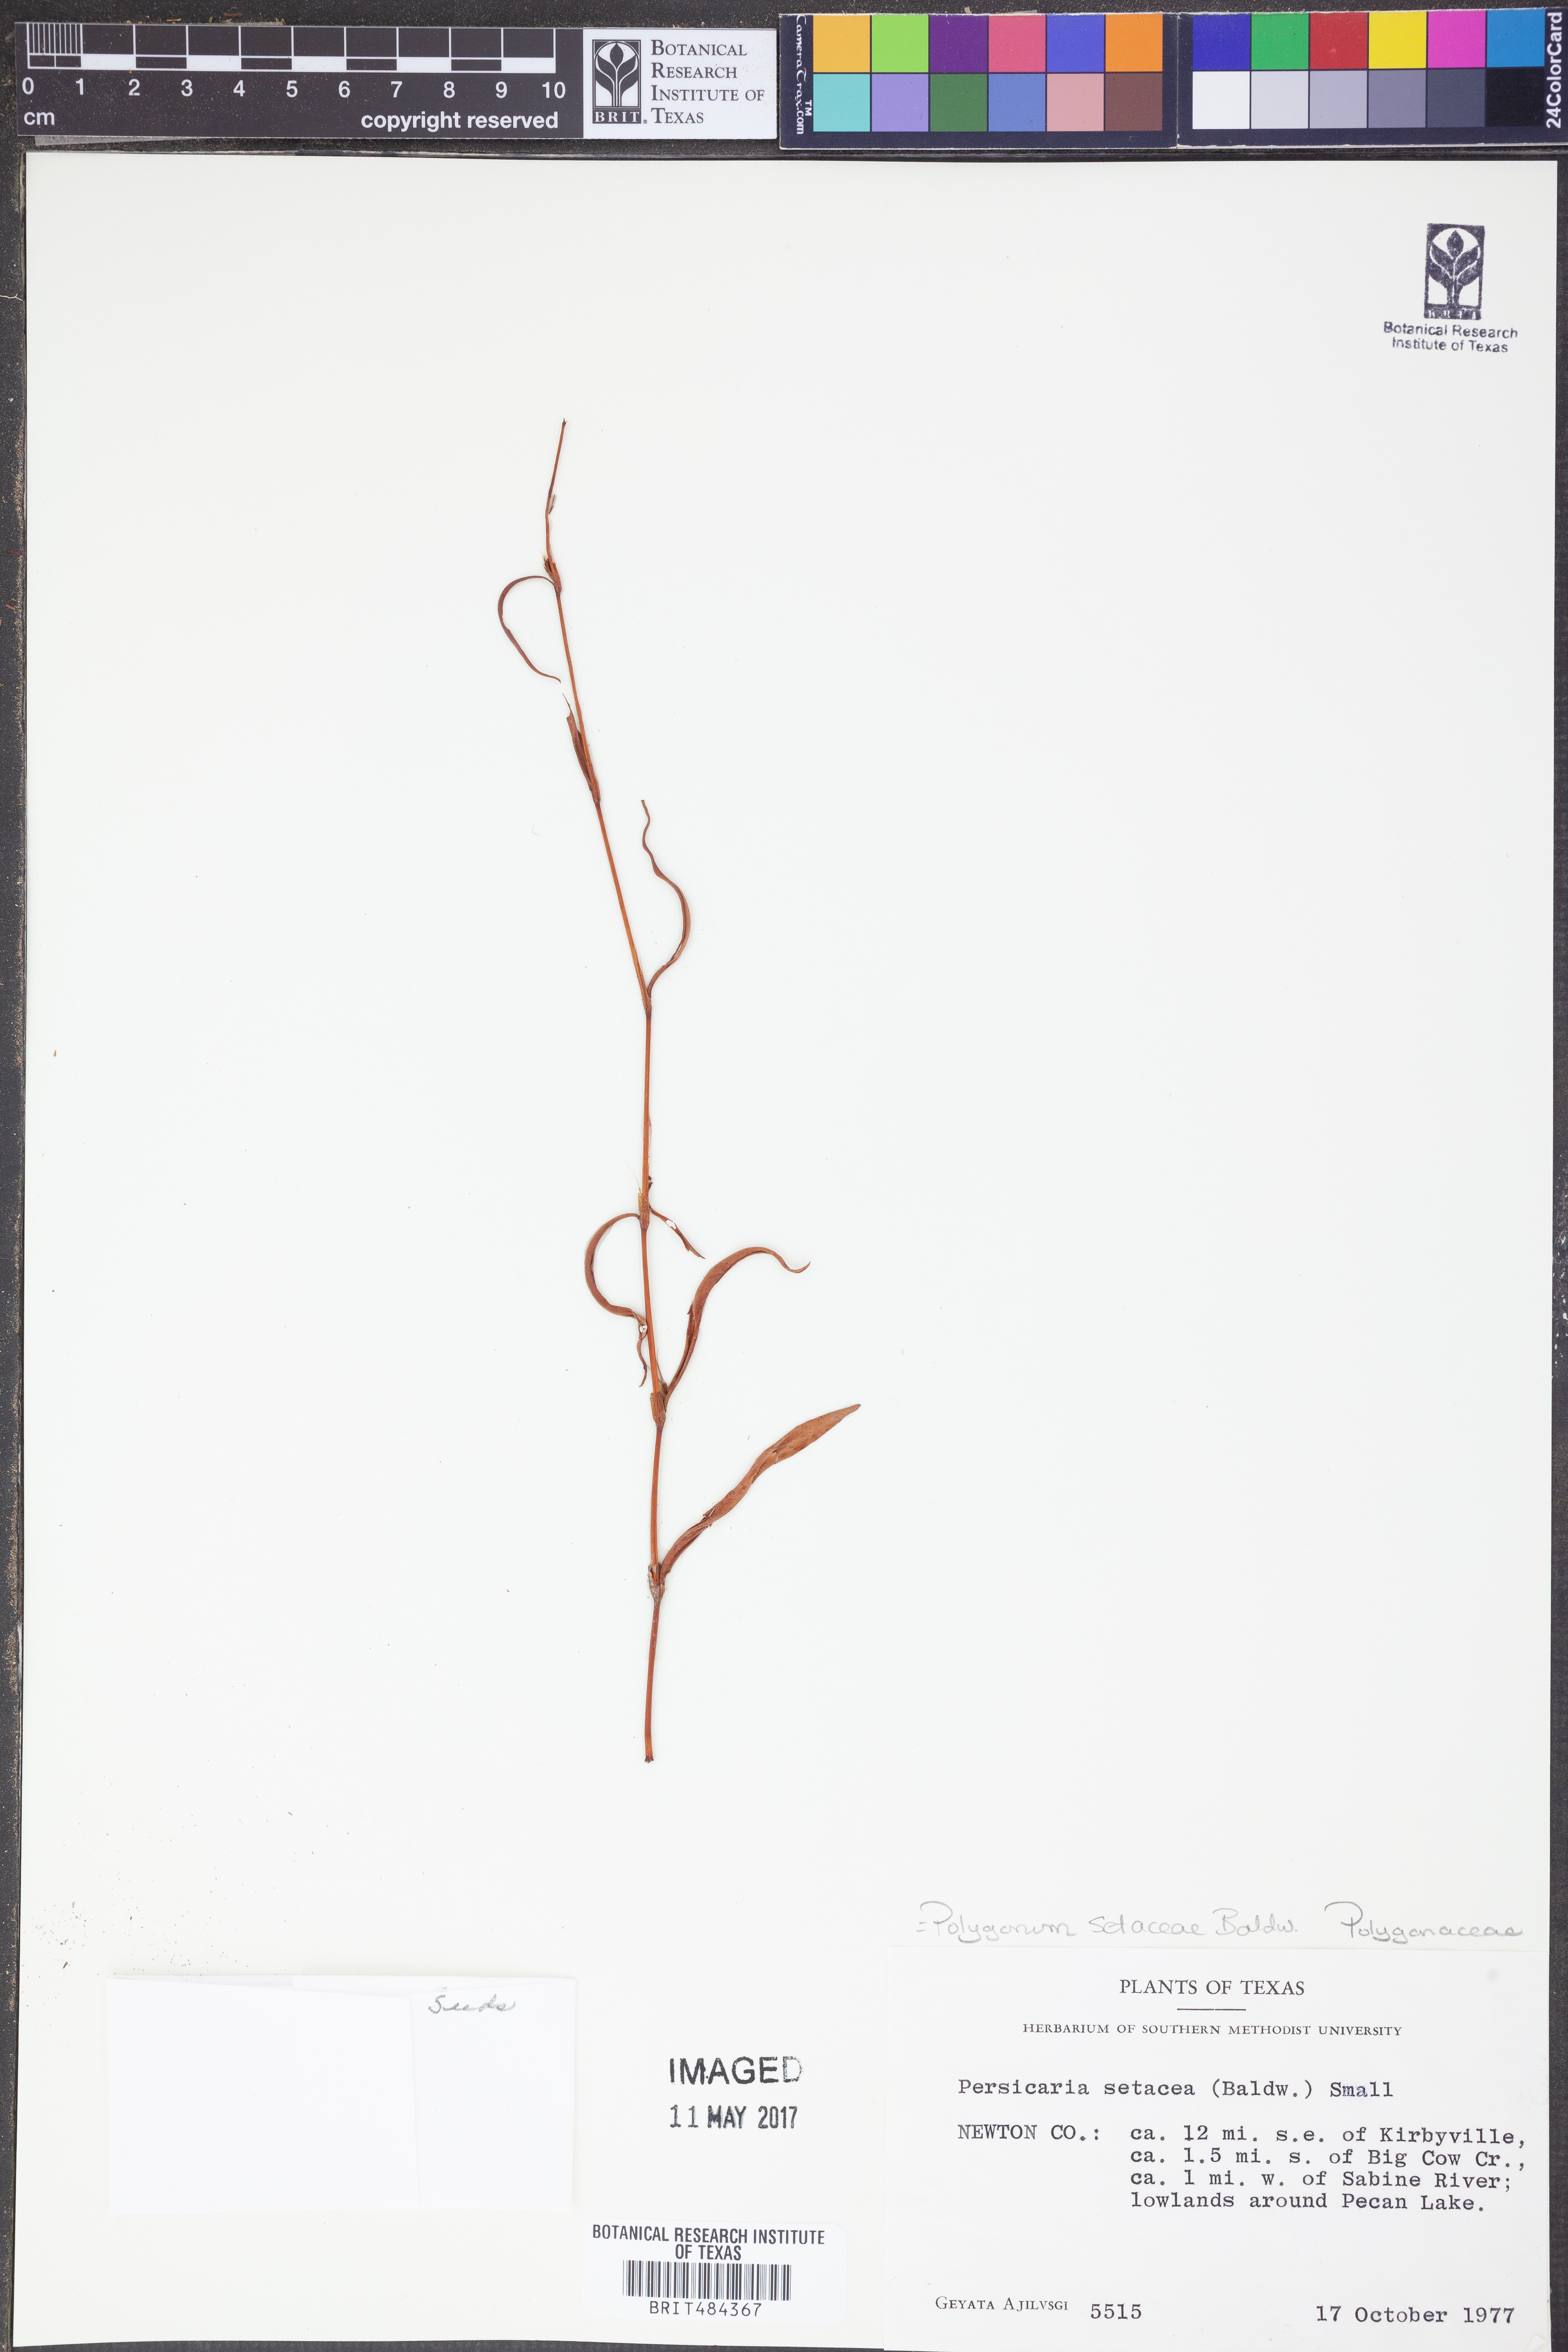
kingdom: Plantae
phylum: Tracheophyta
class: Magnoliopsida
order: Caryophyllales
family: Polygonaceae
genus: Persicaria
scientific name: Persicaria setacea
